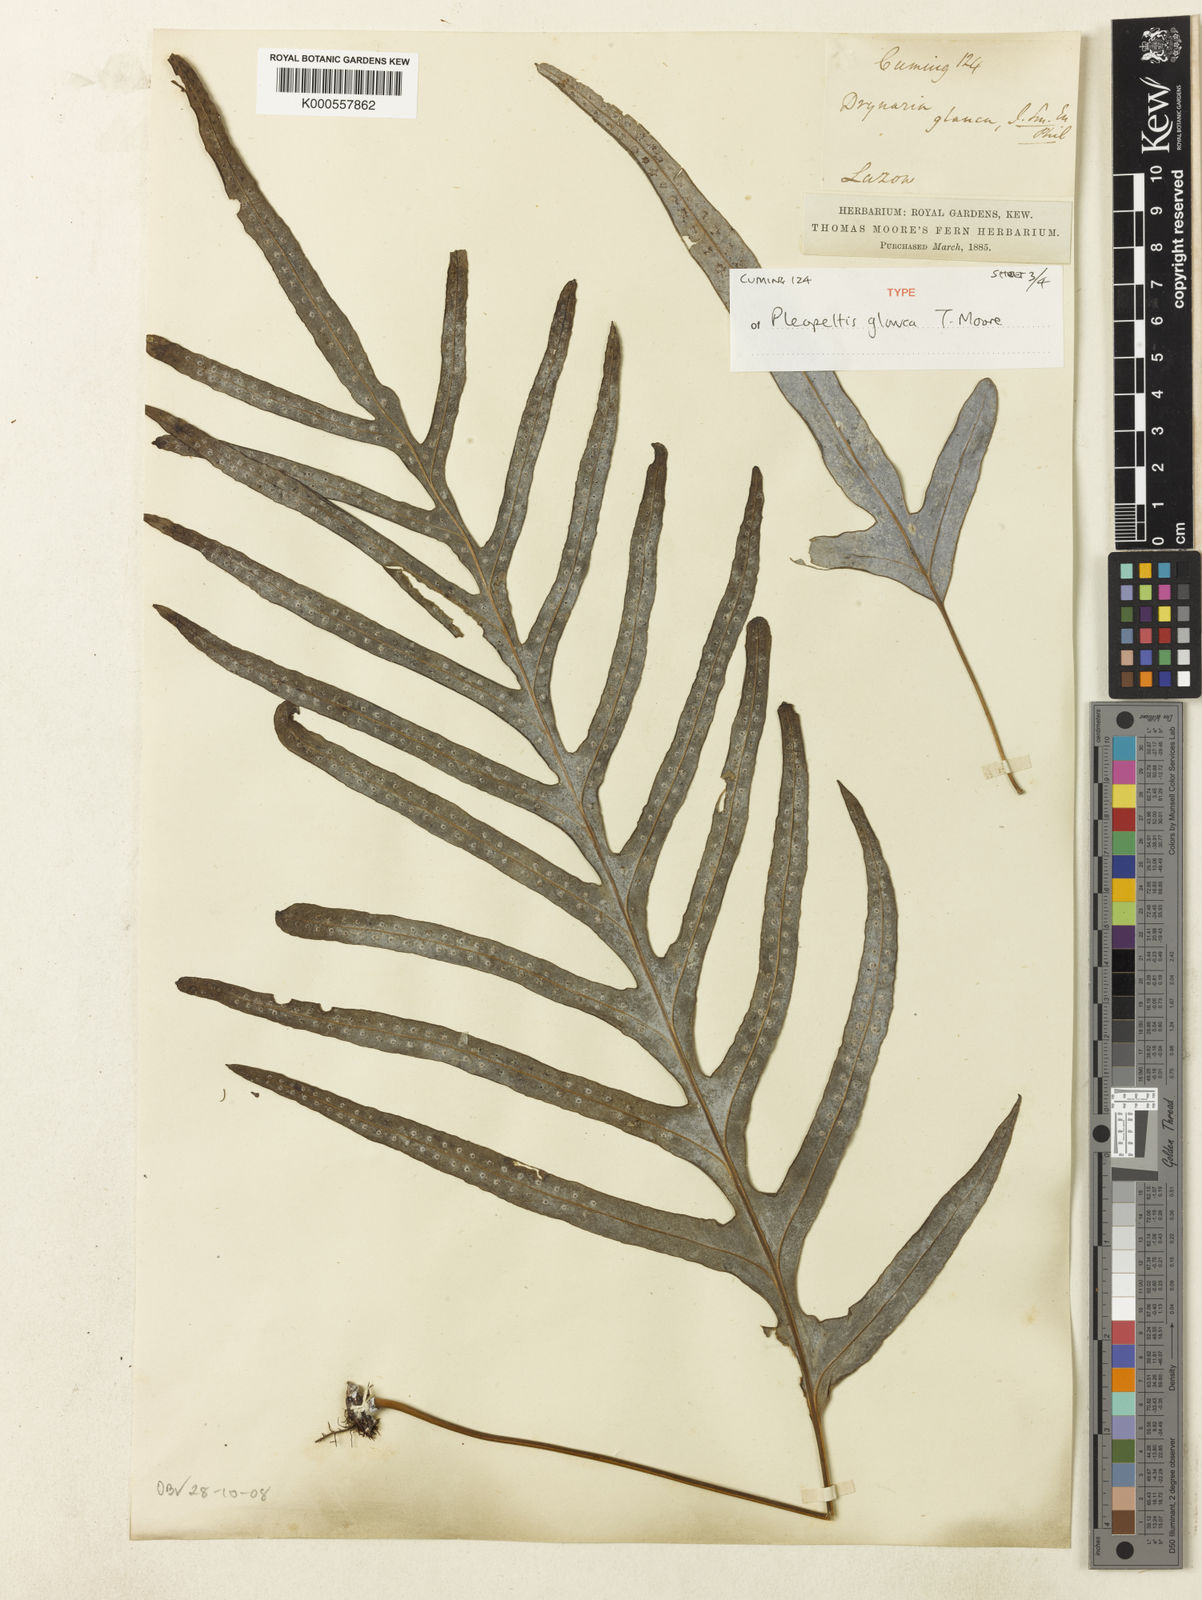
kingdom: Plantae
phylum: Tracheophyta
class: Polypodiopsida
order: Polypodiales
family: Polypodiaceae
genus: Selliguea
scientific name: Selliguea glauca
